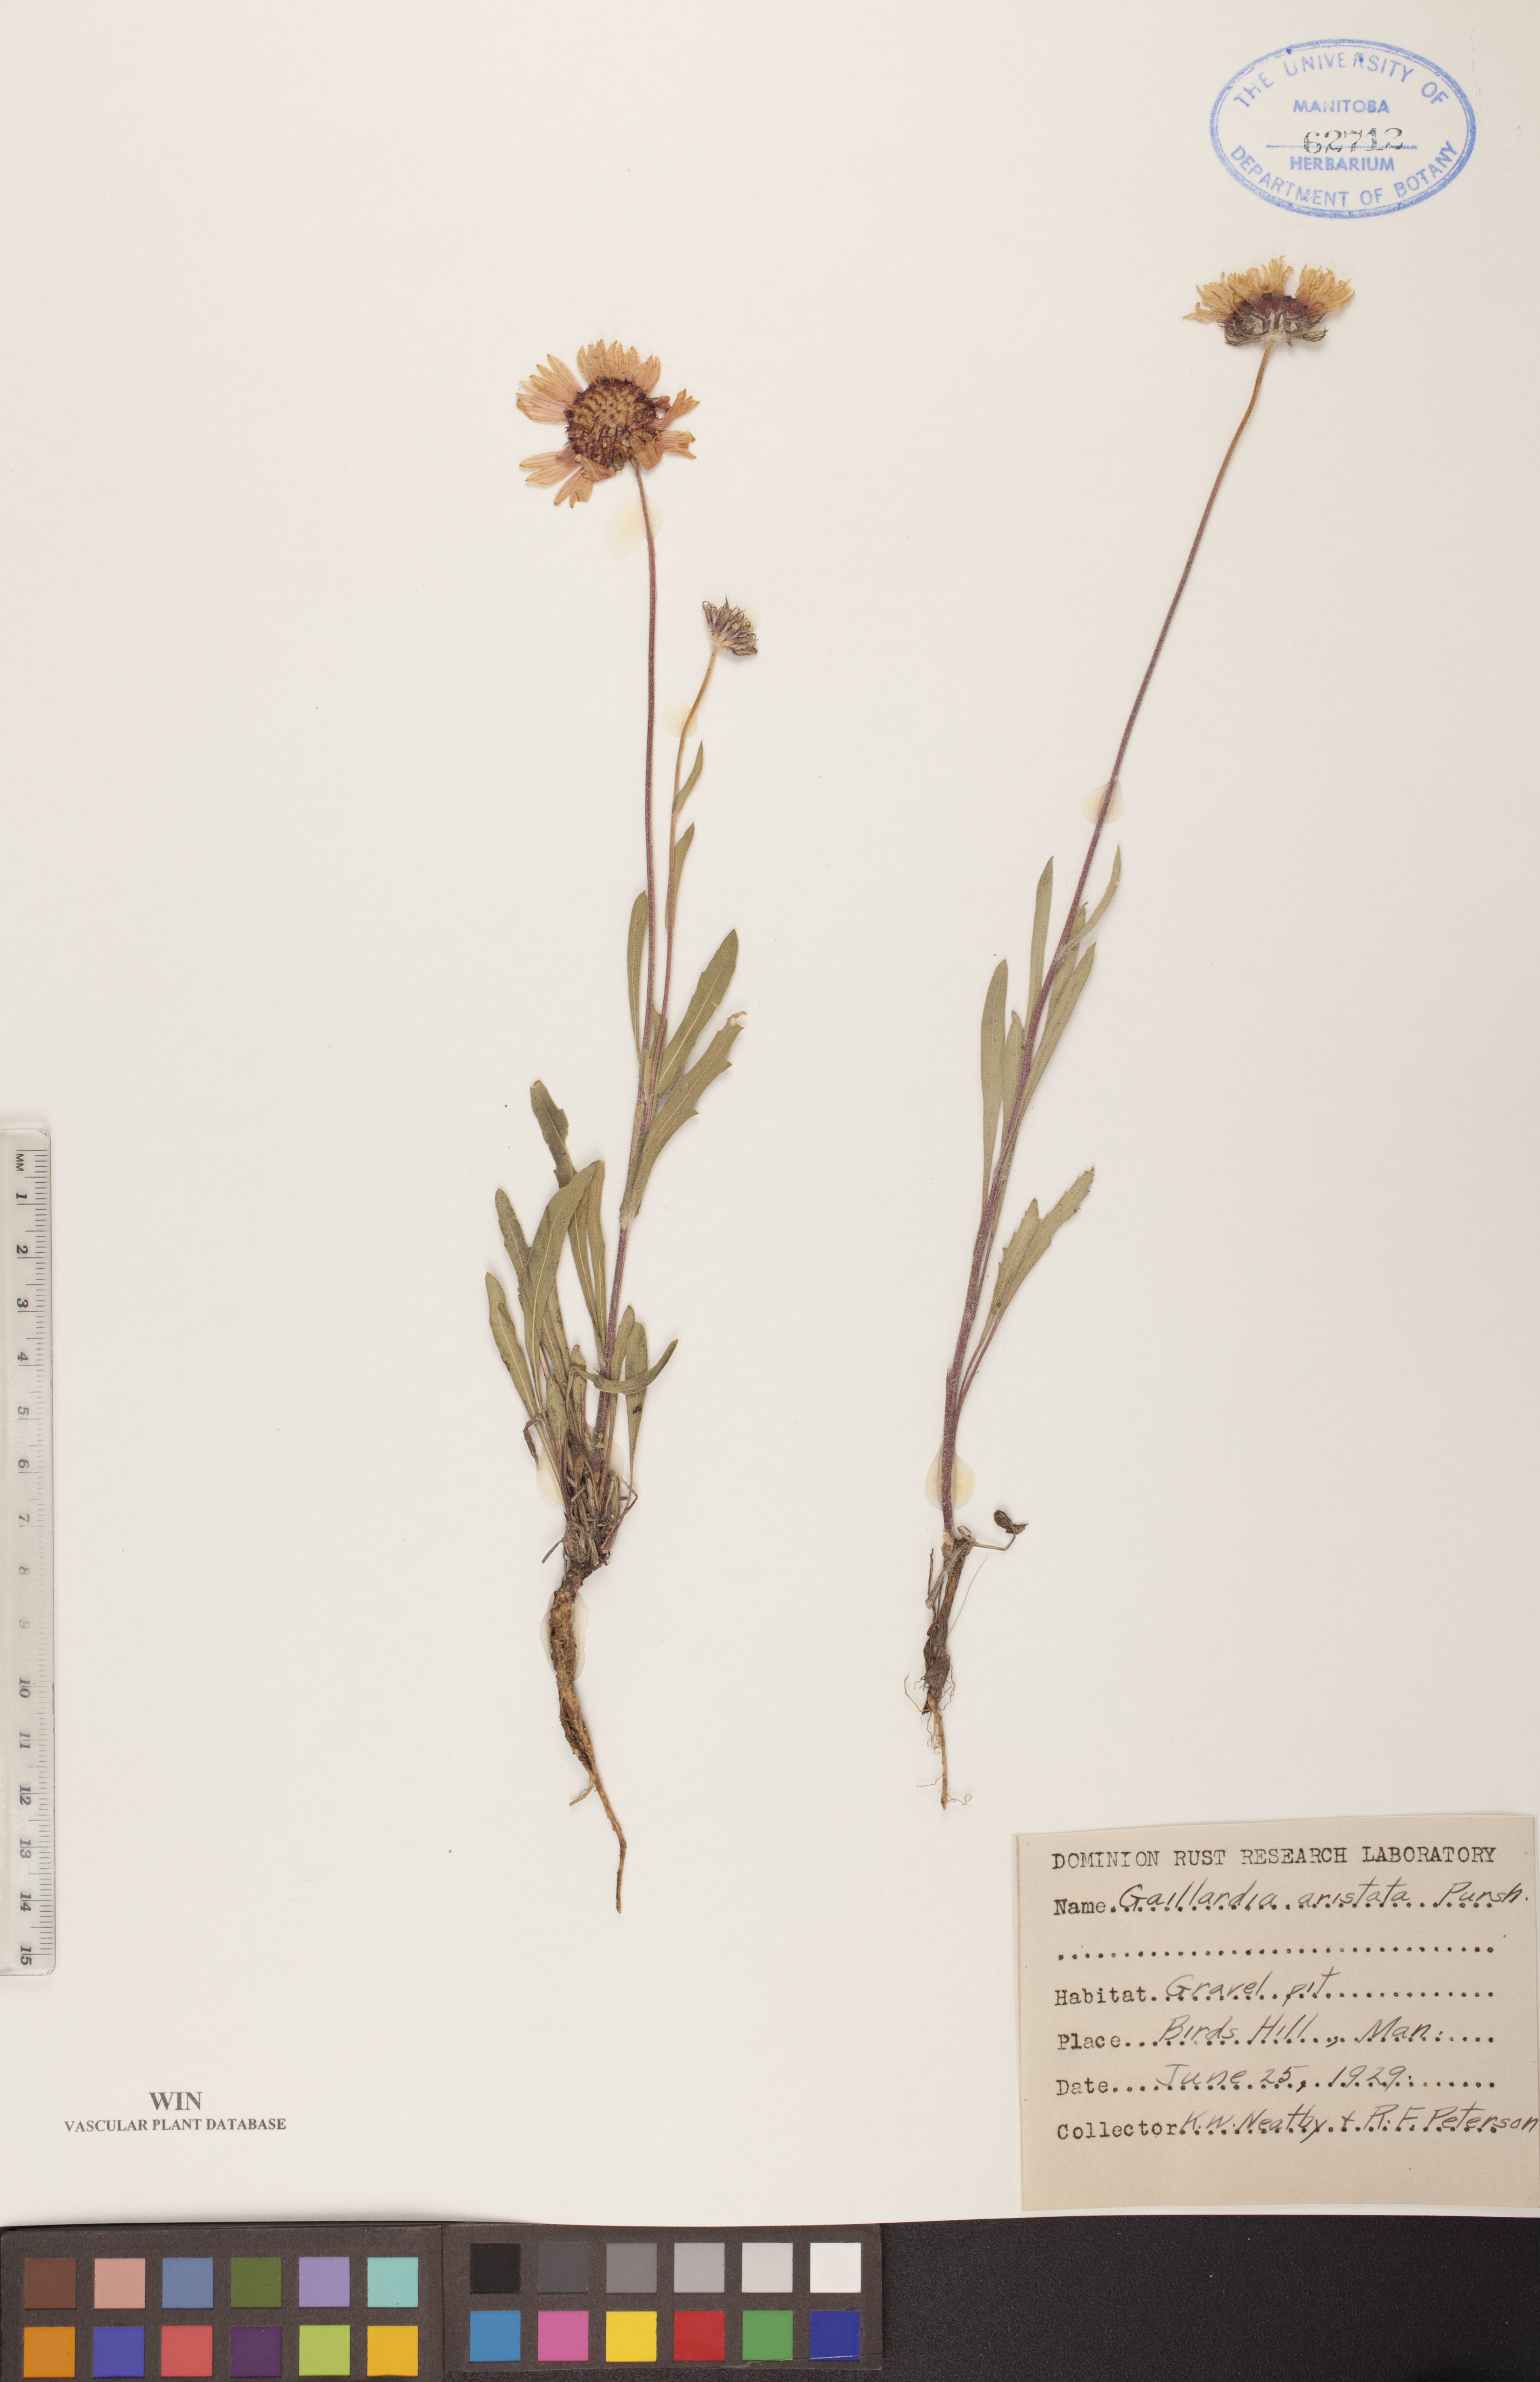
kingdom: Plantae
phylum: Tracheophyta
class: Magnoliopsida
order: Asterales
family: Asteraceae
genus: Gaillardia
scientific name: Gaillardia aristata
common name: Blanket-flower
